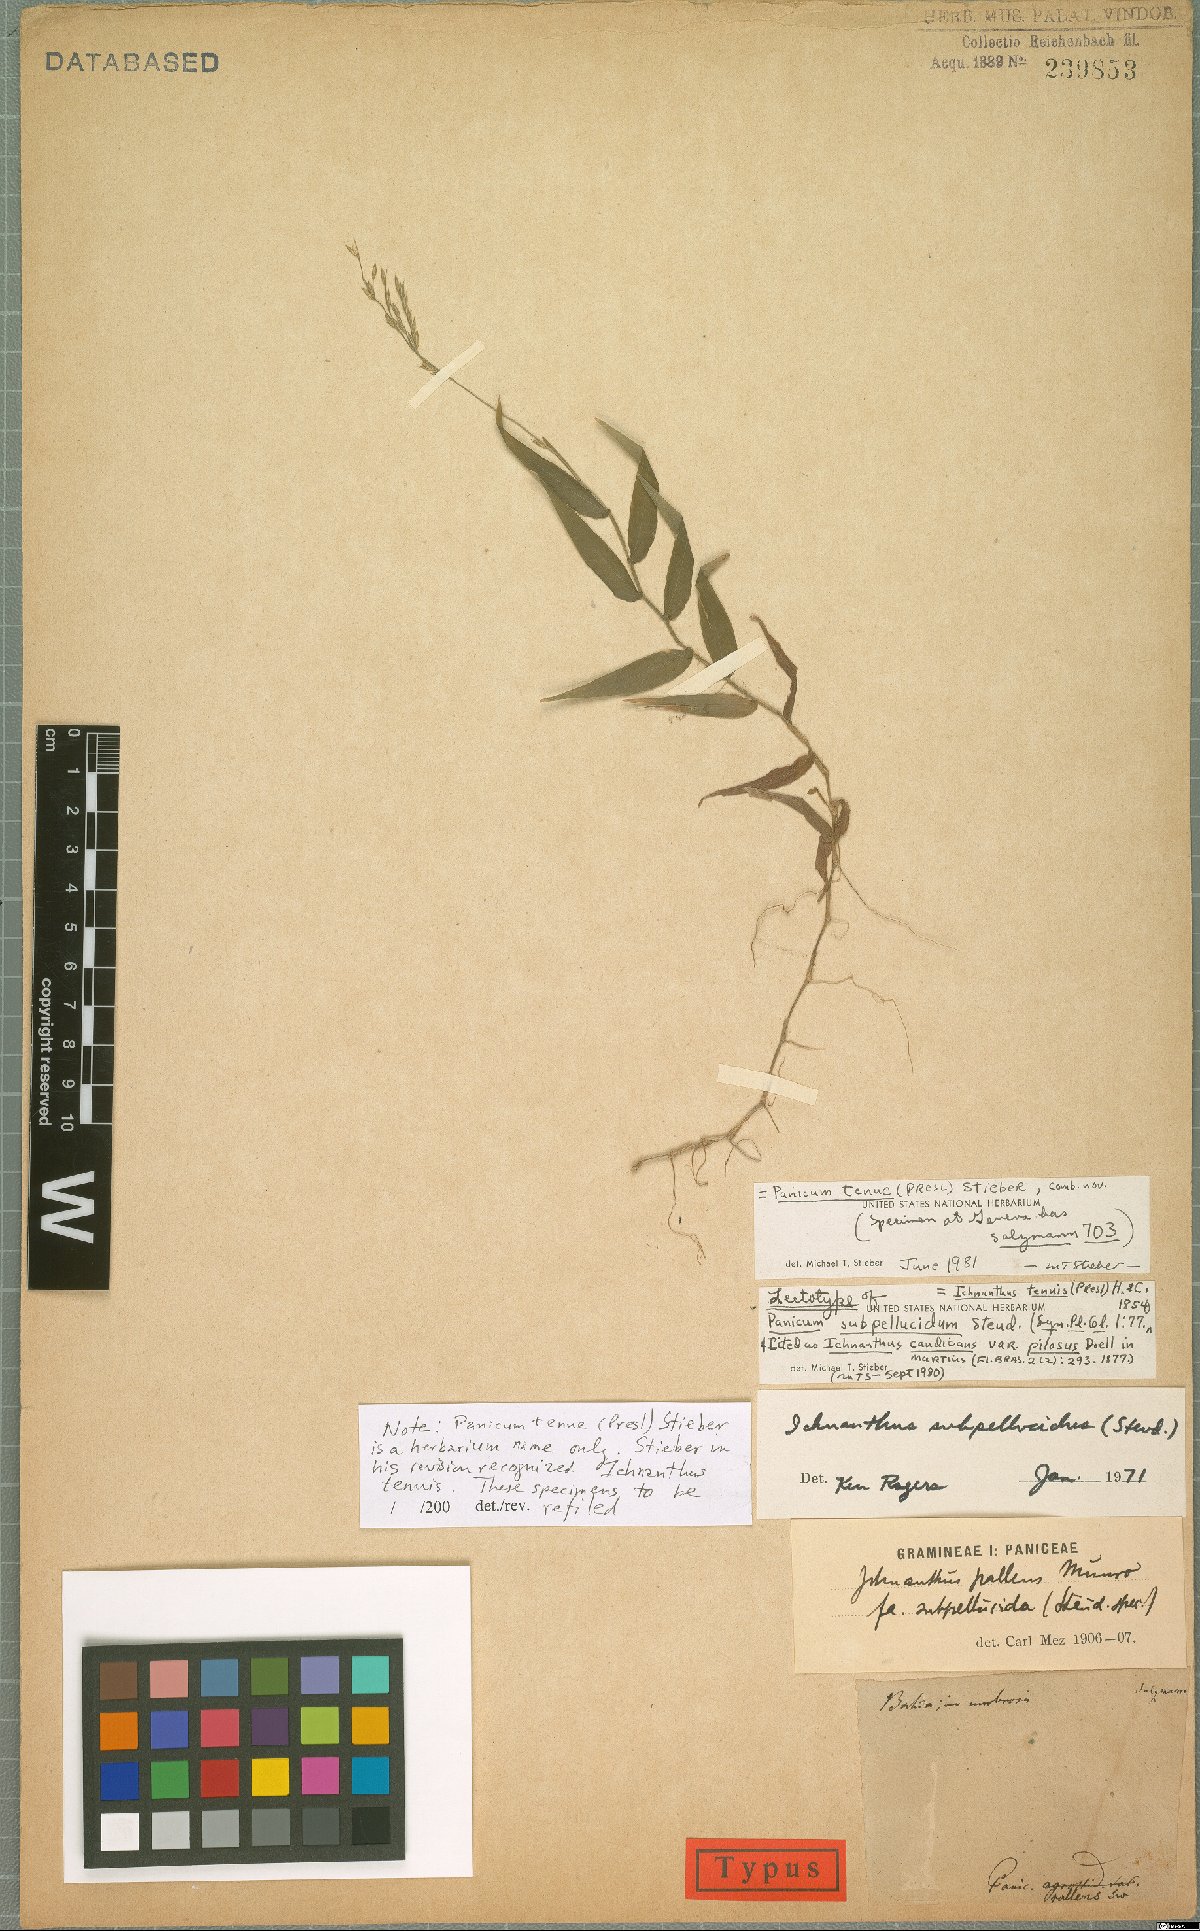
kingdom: Plantae
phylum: Tracheophyta
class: Liliopsida
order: Poales
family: Poaceae
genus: Ichnanthus
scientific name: Ichnanthus tenuis
